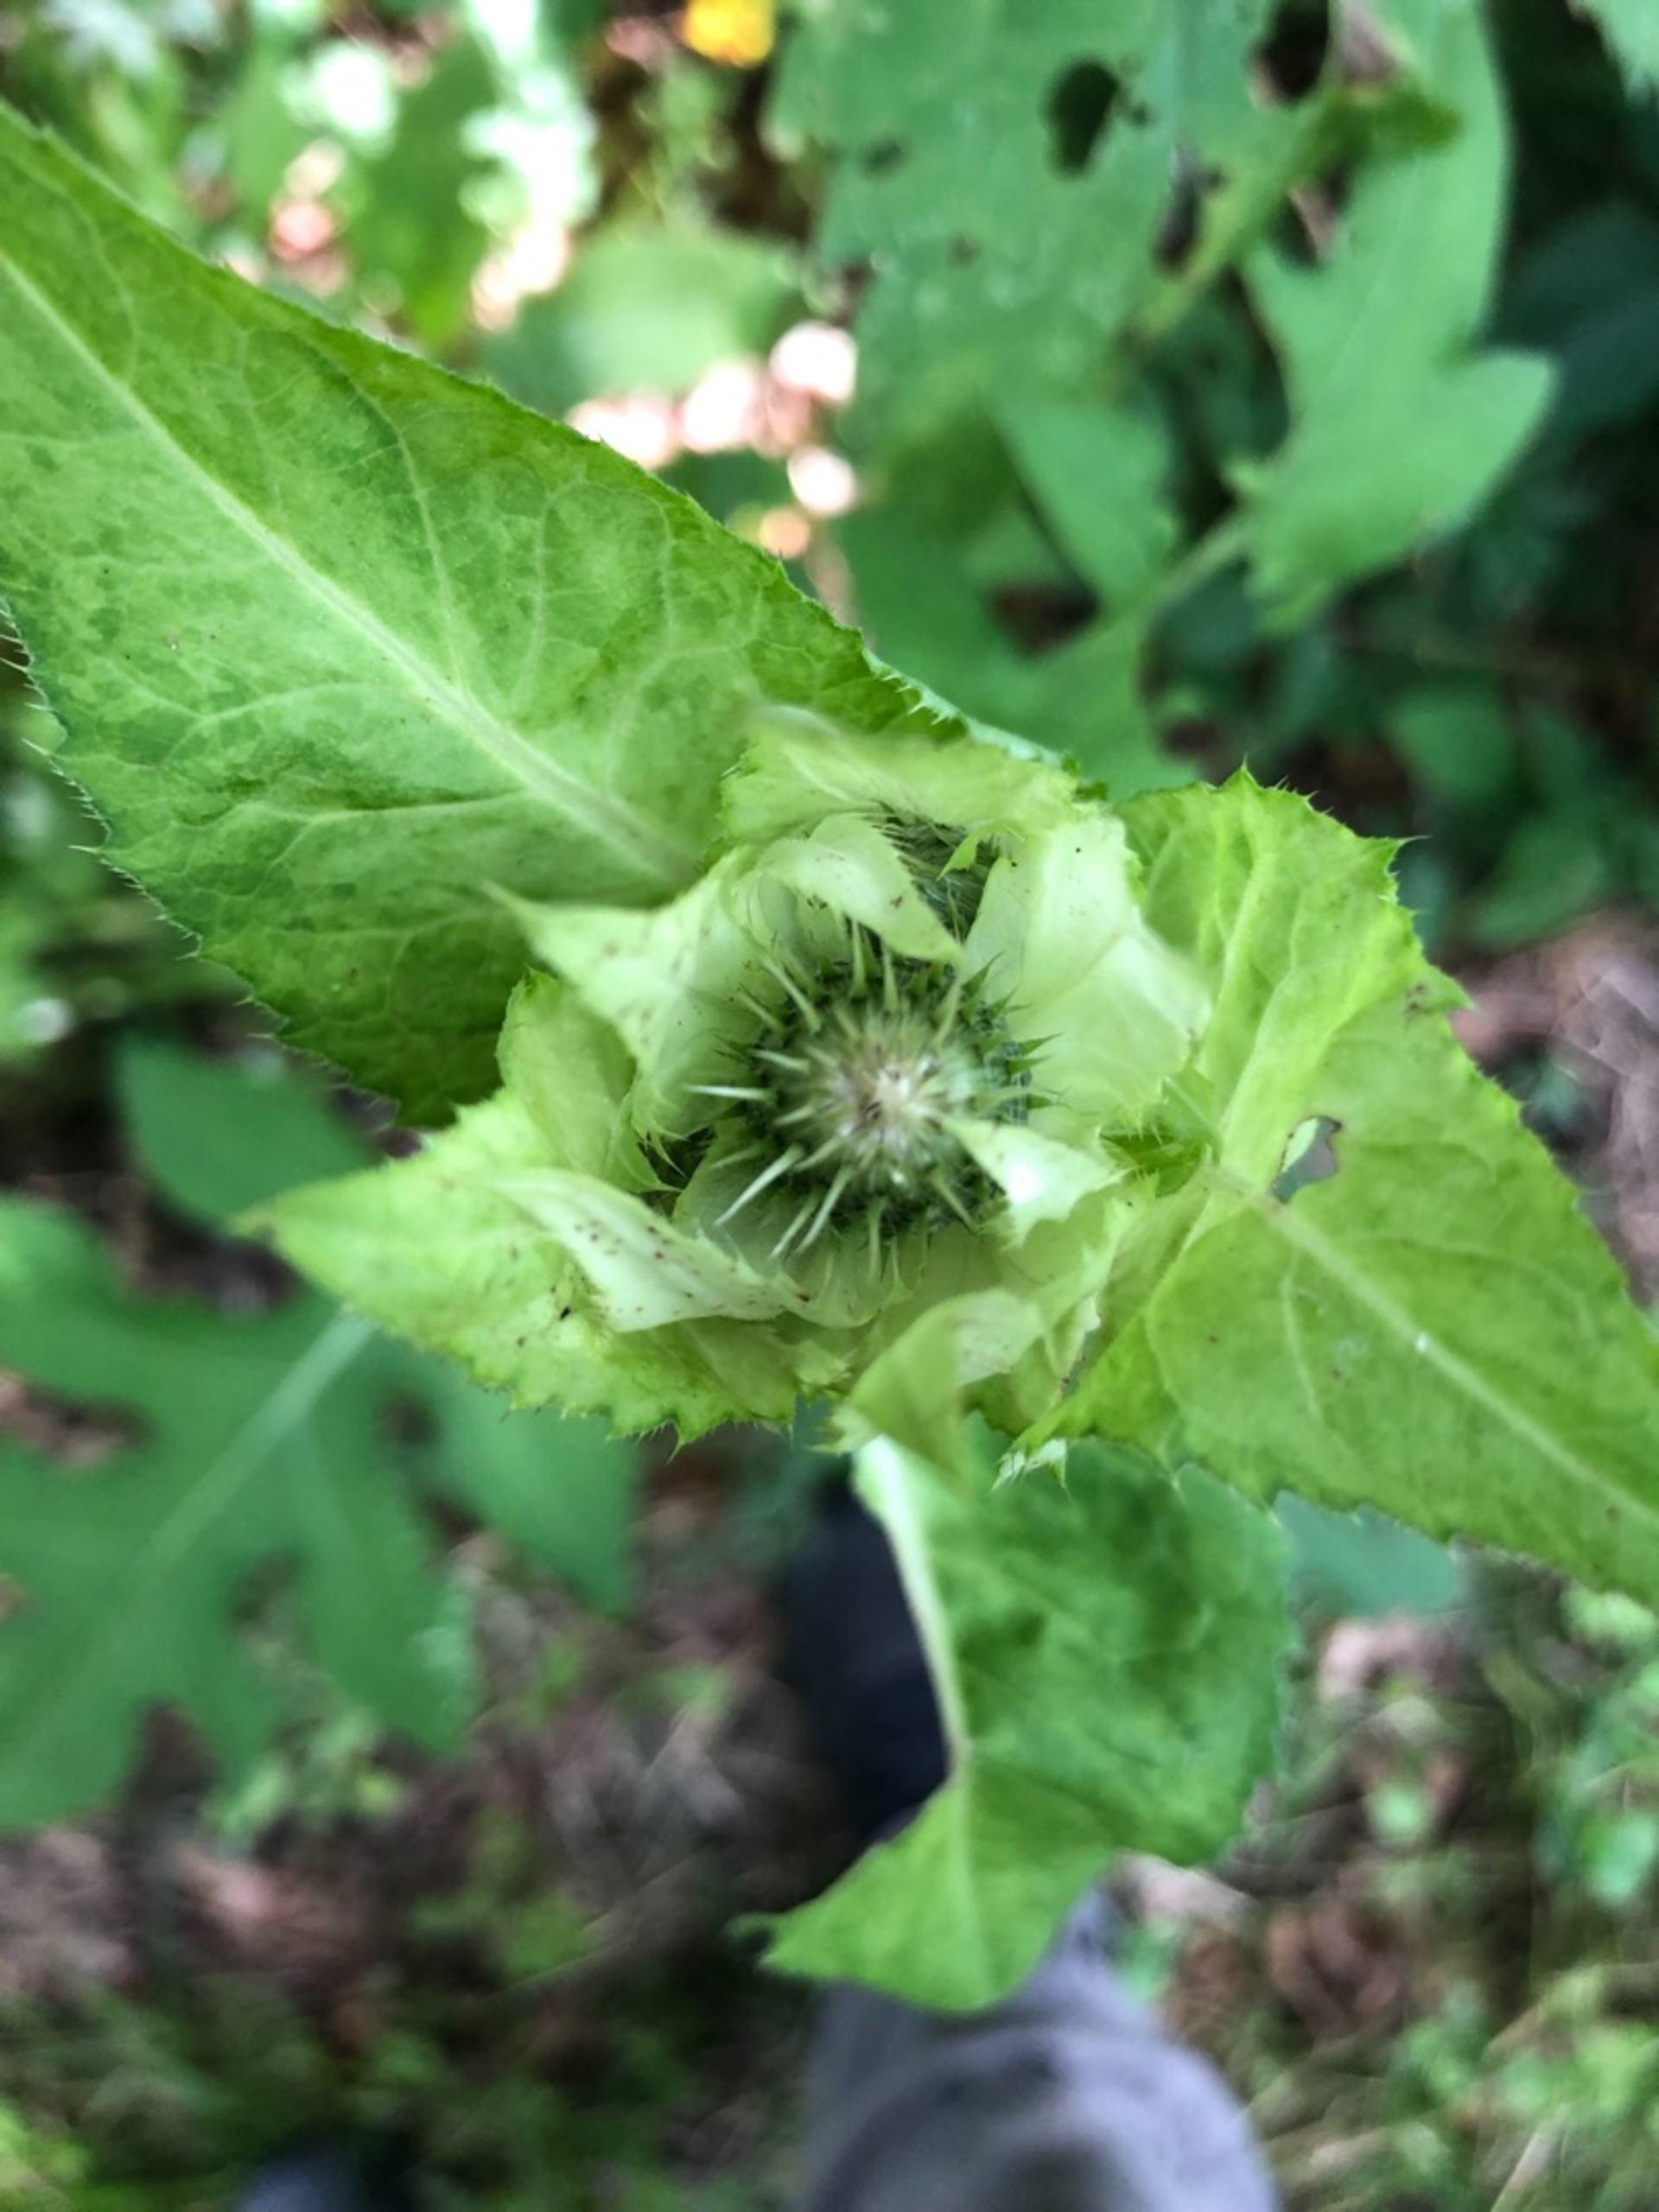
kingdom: Plantae
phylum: Tracheophyta
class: Magnoliopsida
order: Asterales
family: Asteraceae
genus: Cirsium
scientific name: Cirsium oleraceum
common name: Kål-tidsel
